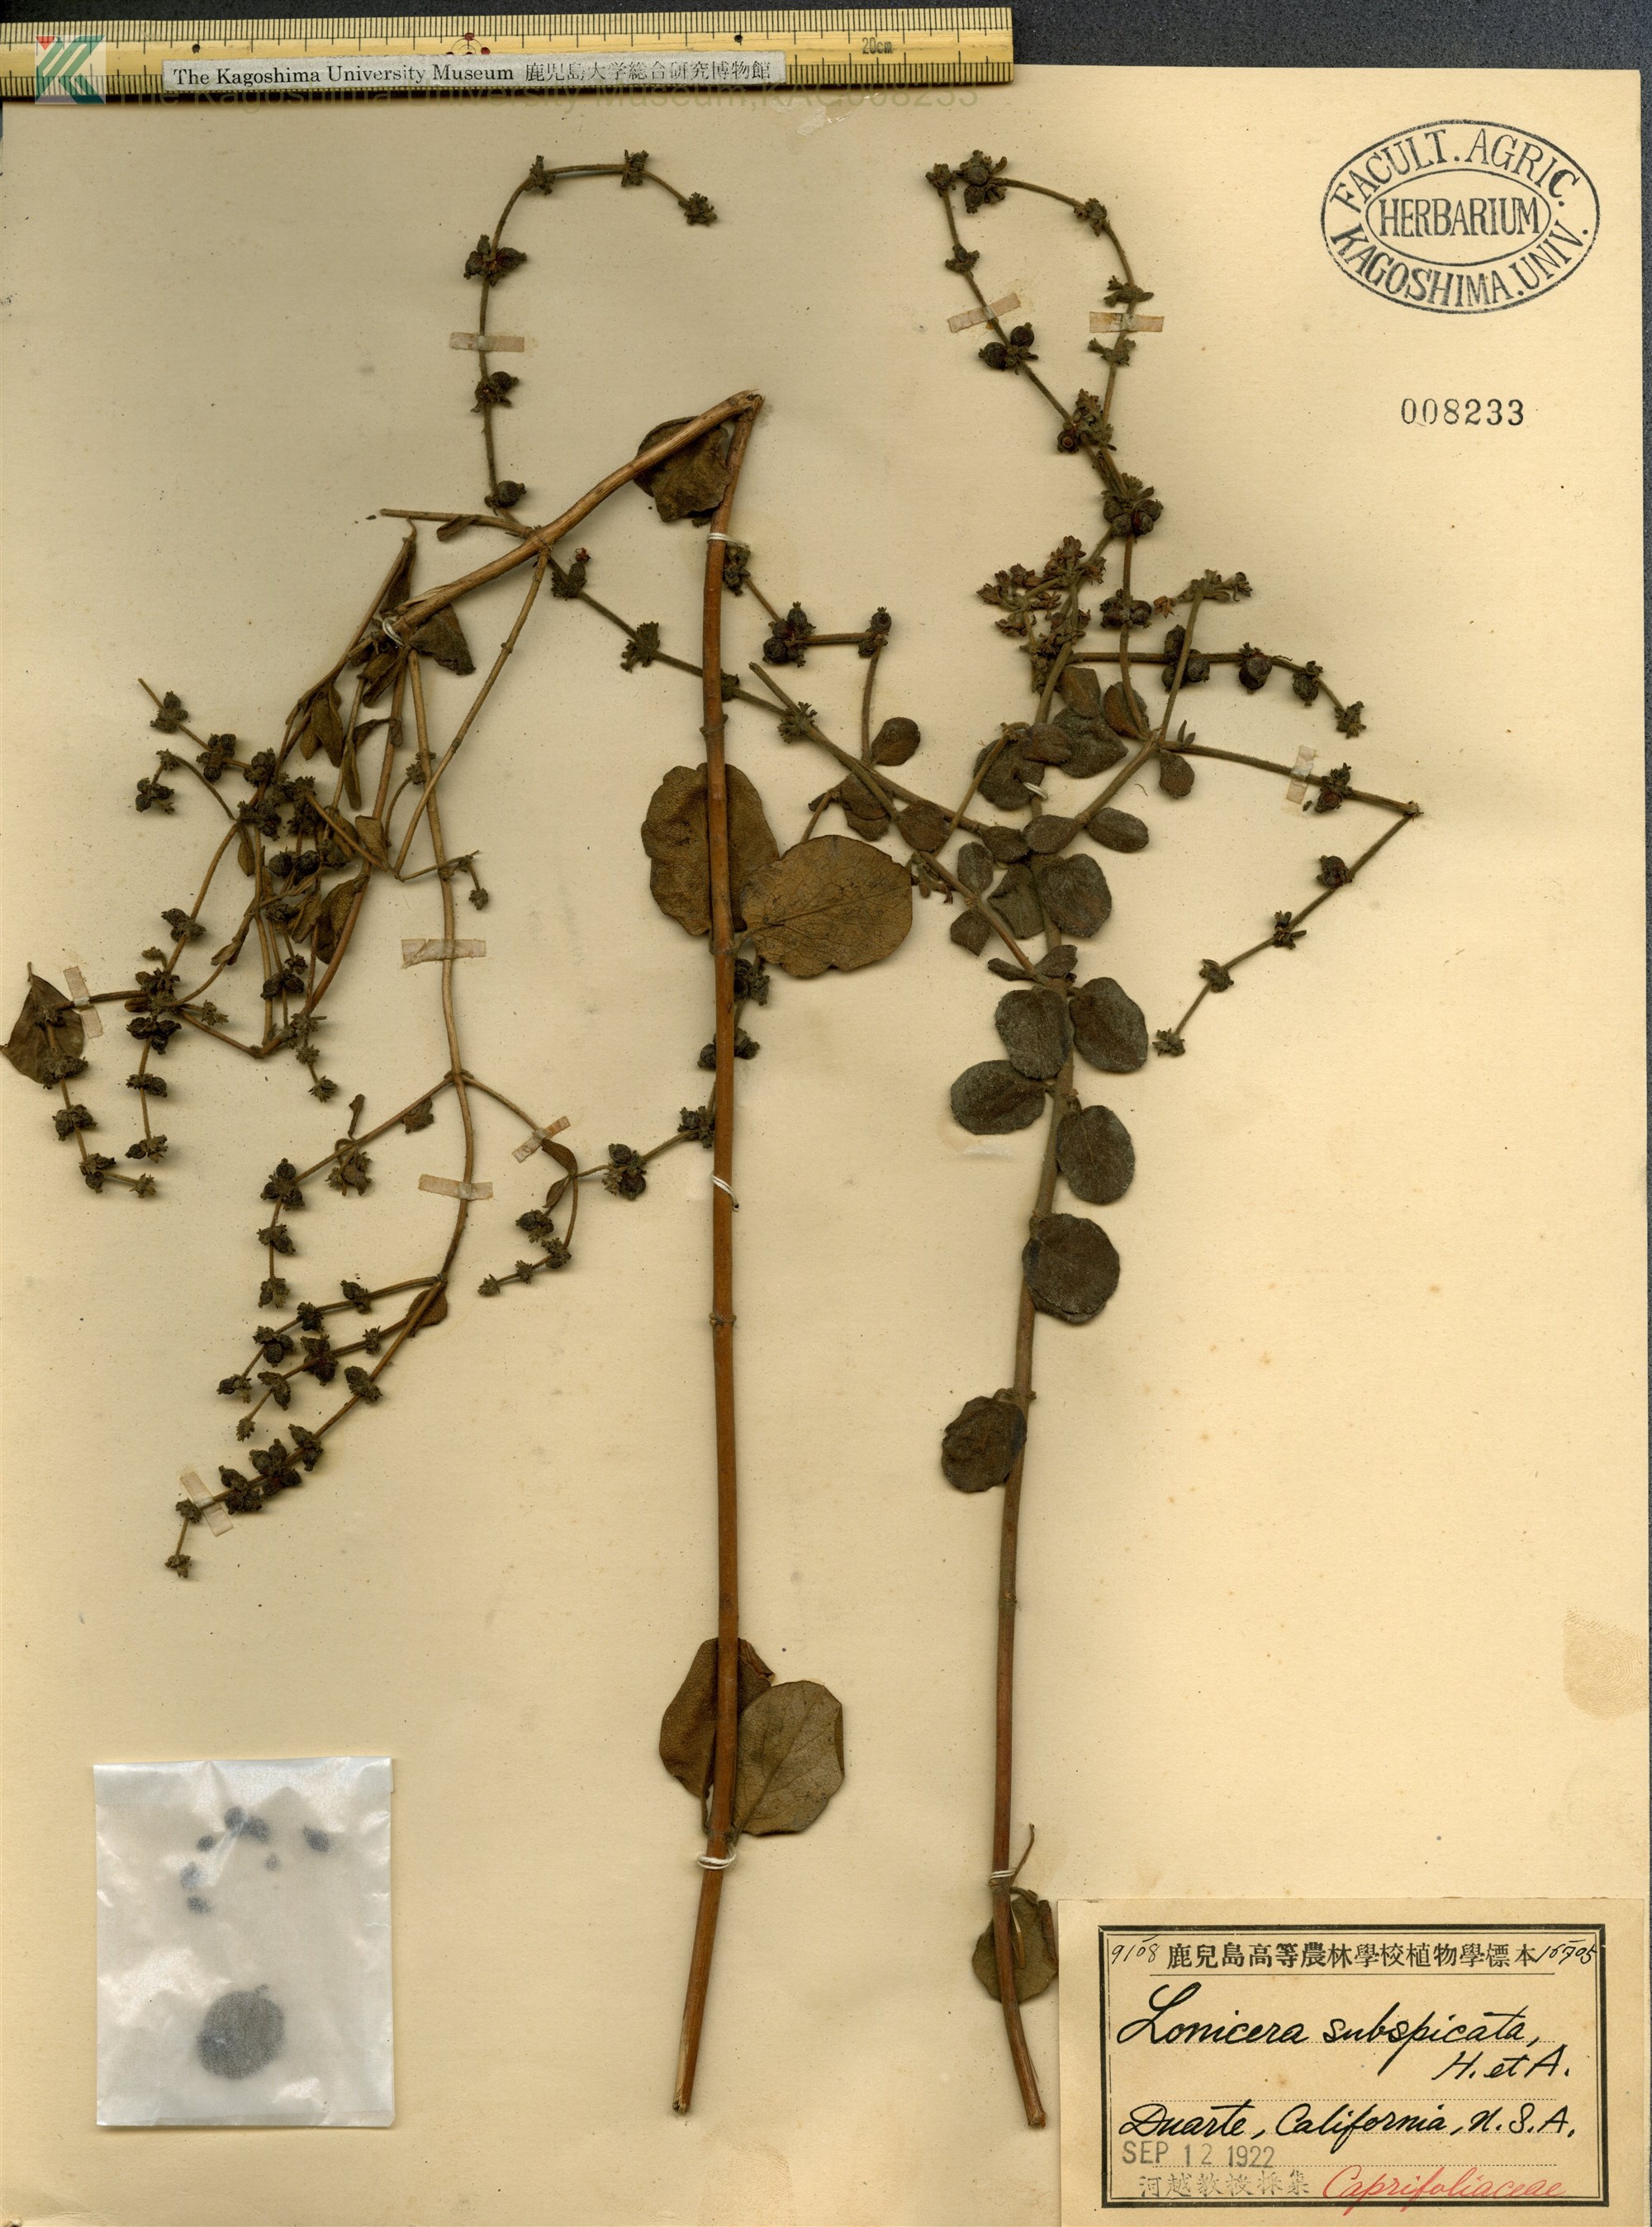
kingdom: Plantae
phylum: Tracheophyta
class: Magnoliopsida
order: Dipsacales
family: Caprifoliaceae
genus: Lonicera
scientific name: Lonicera subspicata
